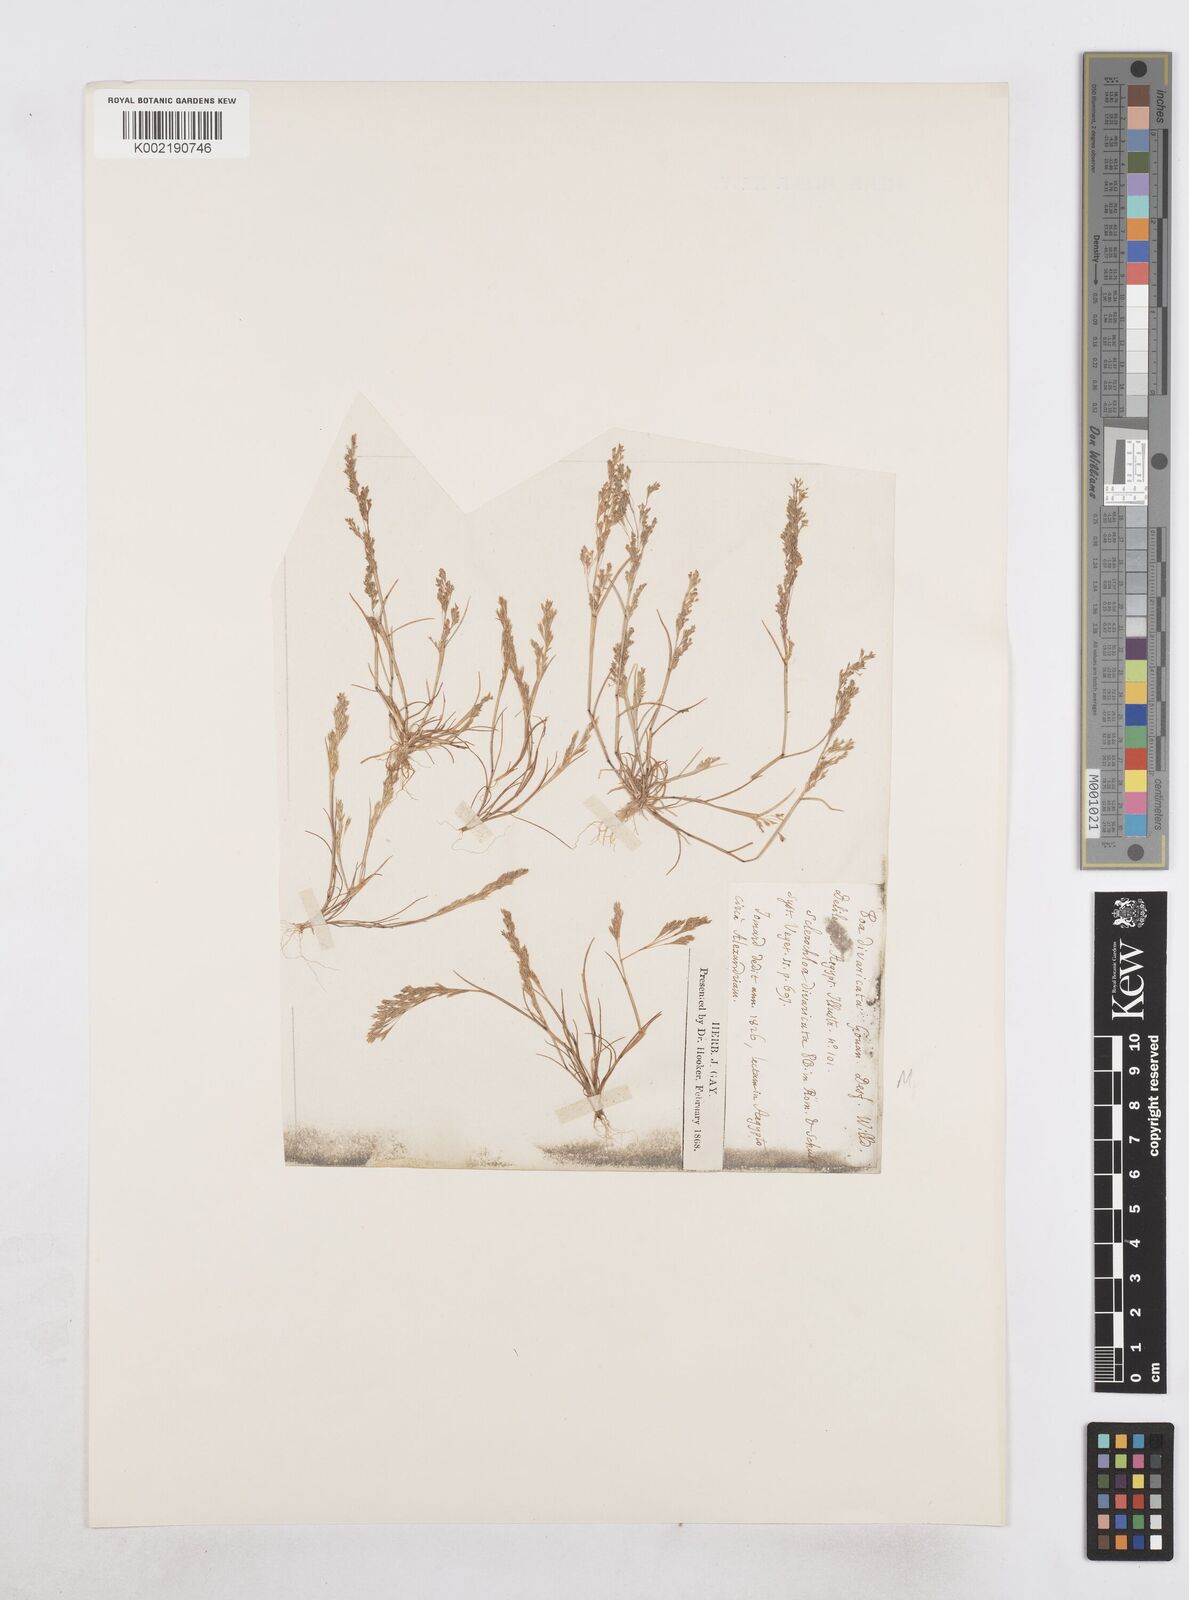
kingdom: Plantae
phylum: Tracheophyta
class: Liliopsida
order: Poales
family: Poaceae
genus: Sphenopus
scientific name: Sphenopus divaricatus
